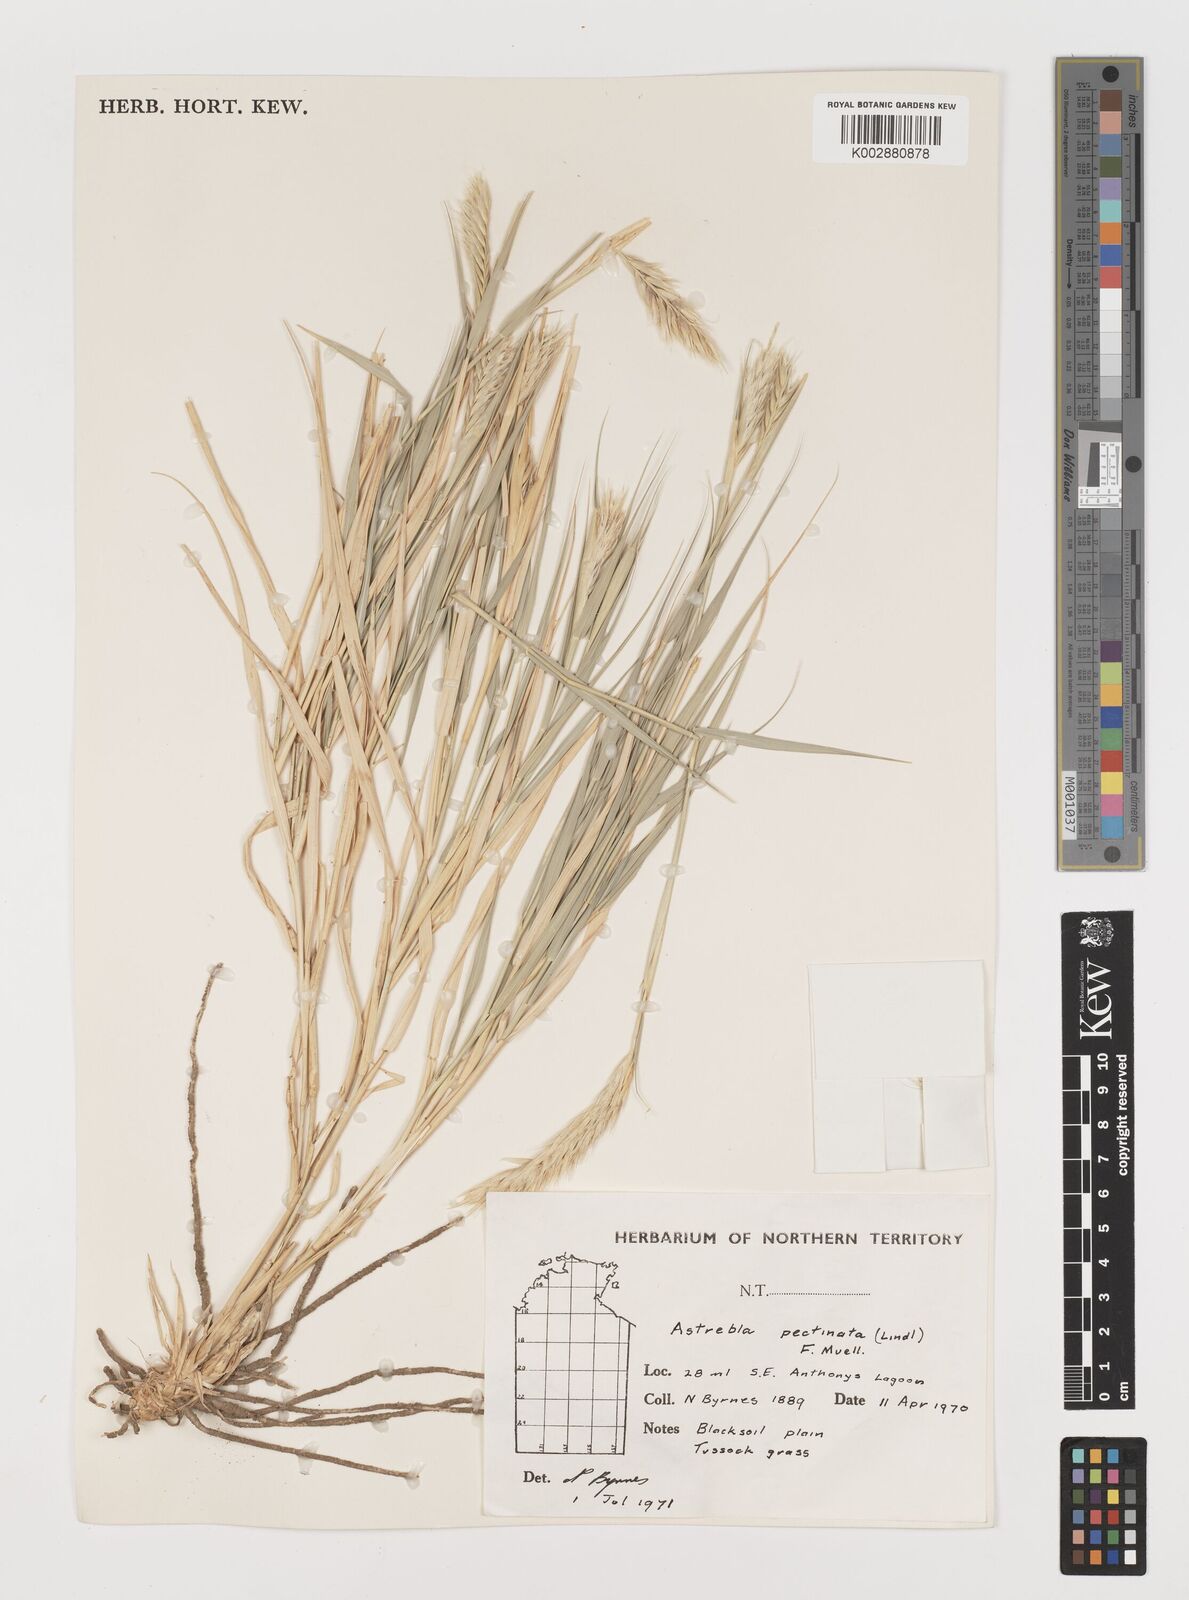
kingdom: Plantae
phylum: Tracheophyta
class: Liliopsida
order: Poales
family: Poaceae
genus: Astrebla
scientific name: Astrebla pectinata
